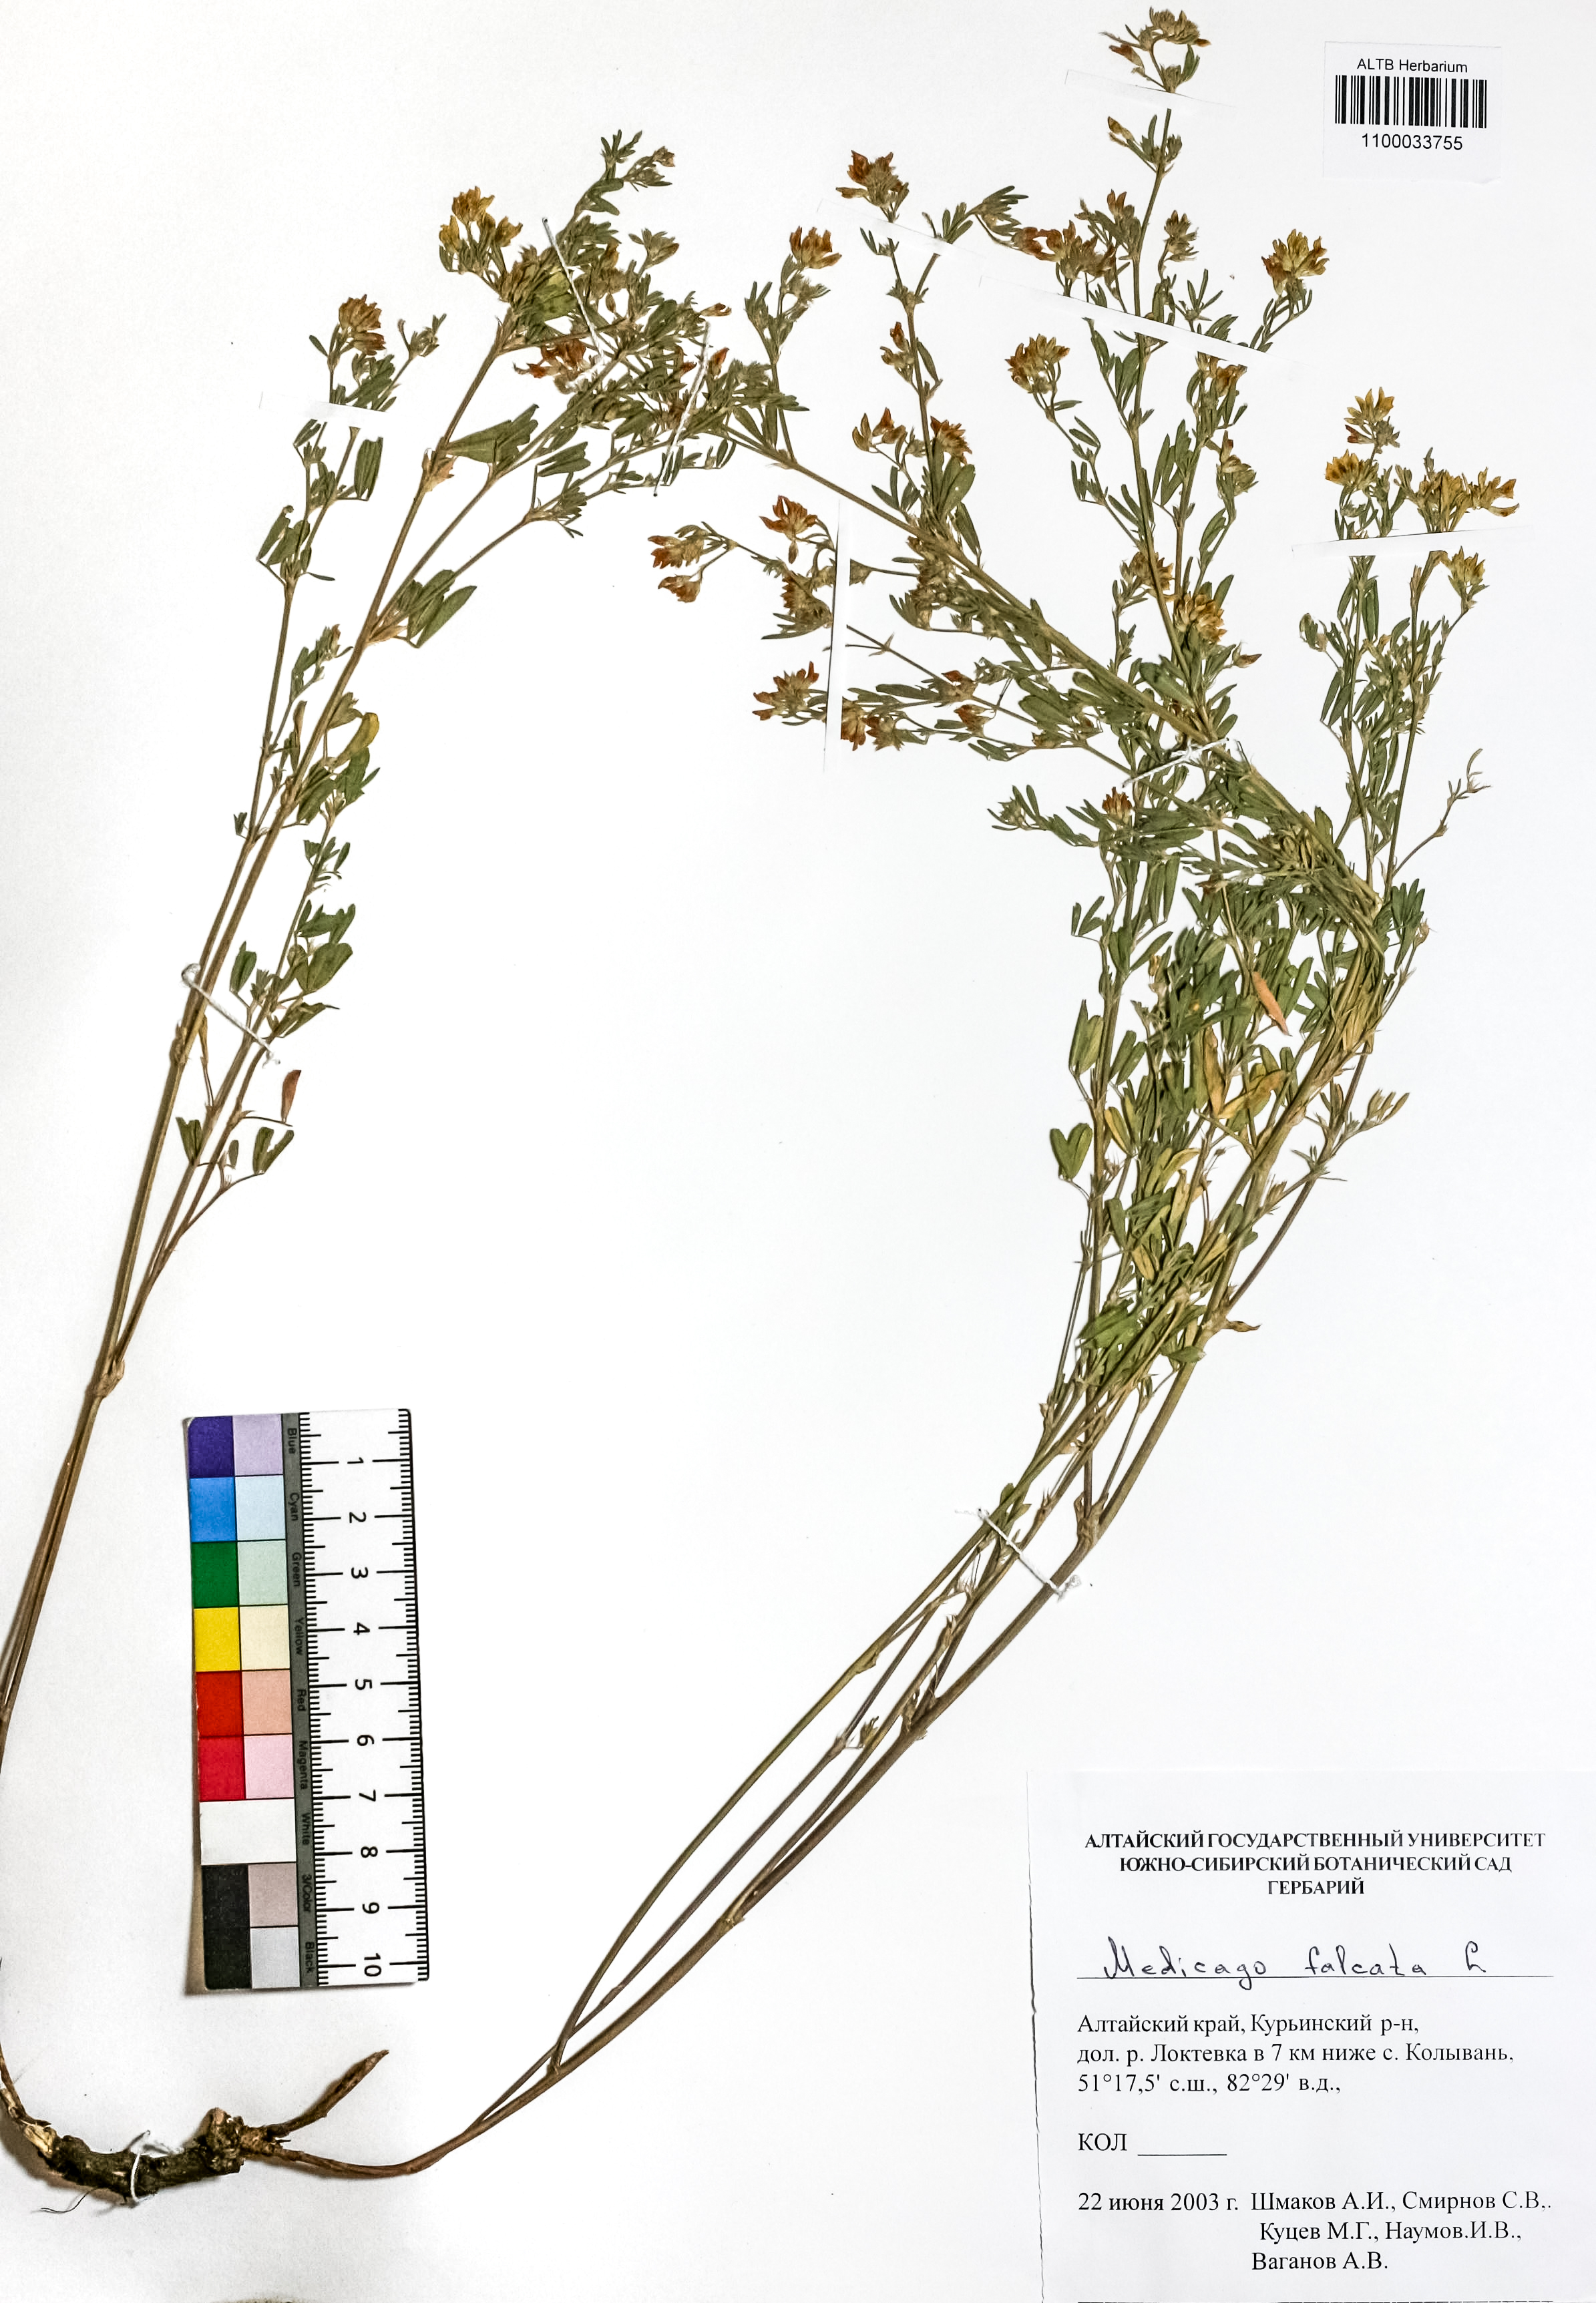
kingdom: Plantae
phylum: Tracheophyta
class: Magnoliopsida
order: Fabales
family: Fabaceae
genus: Medicago
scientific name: Medicago falcata
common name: Sickle medick
